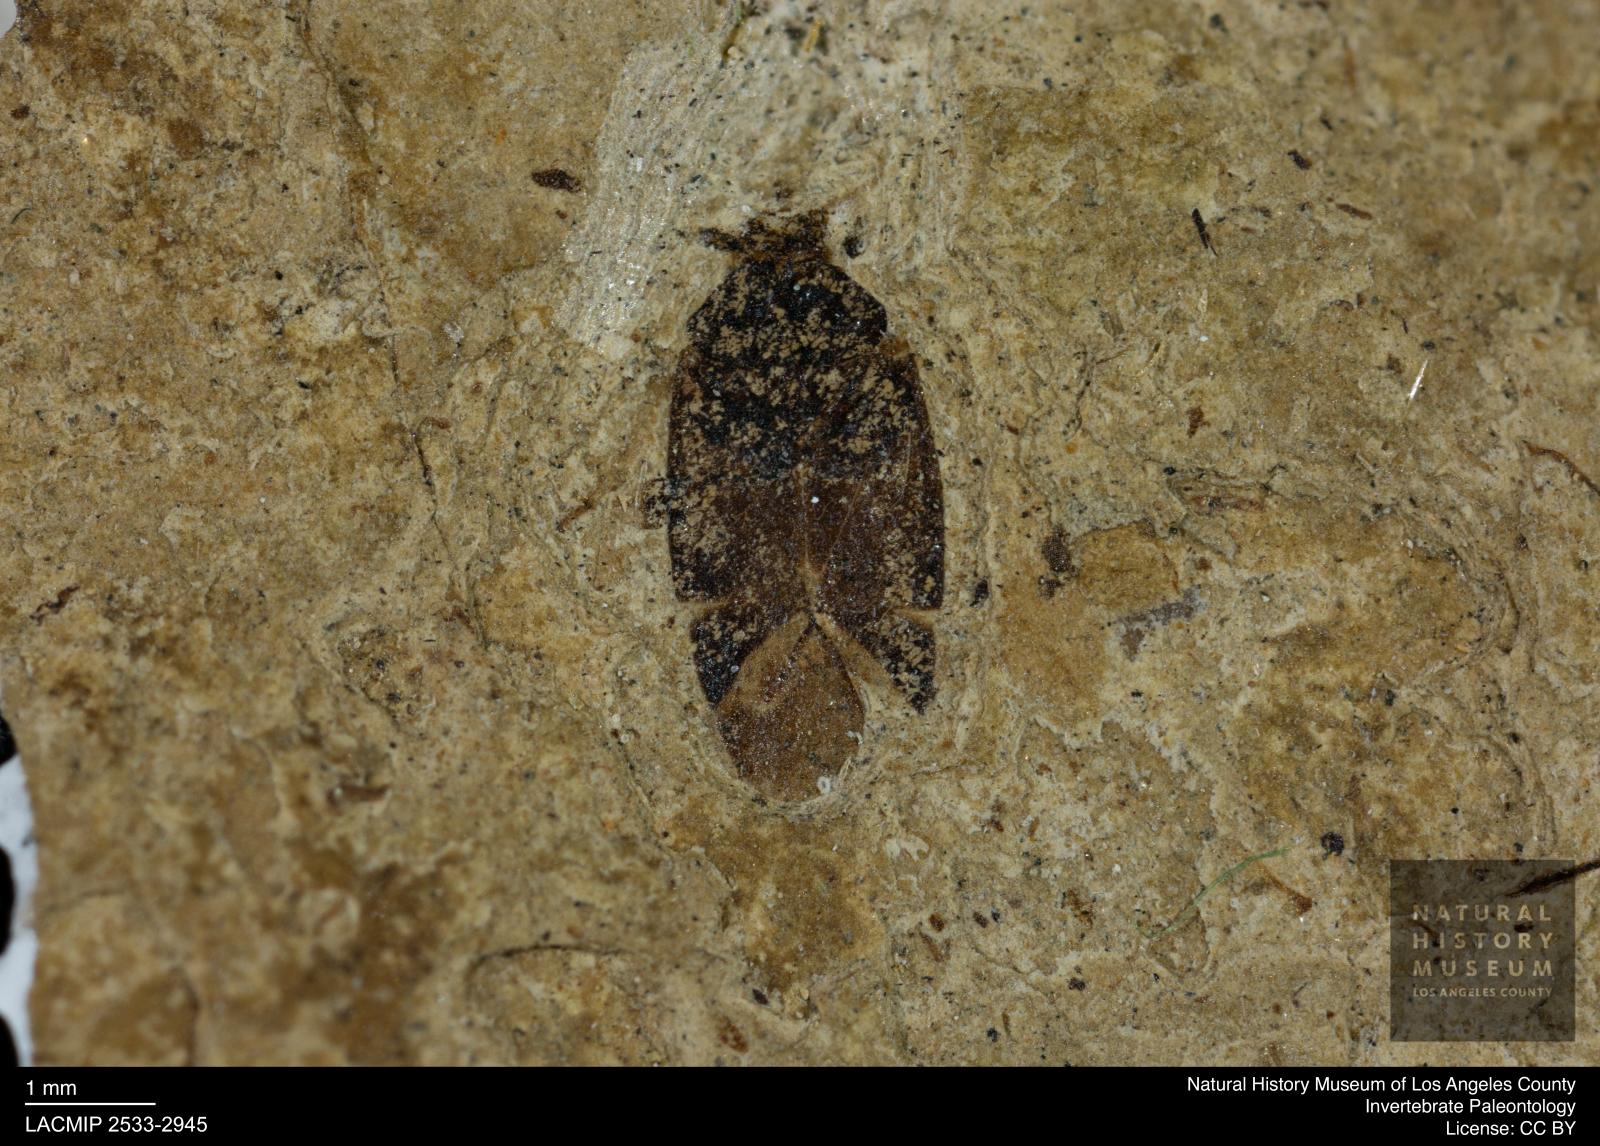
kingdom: Animalia
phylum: Arthropoda
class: Insecta
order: Hemiptera
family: Miridae
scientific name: Miridae
